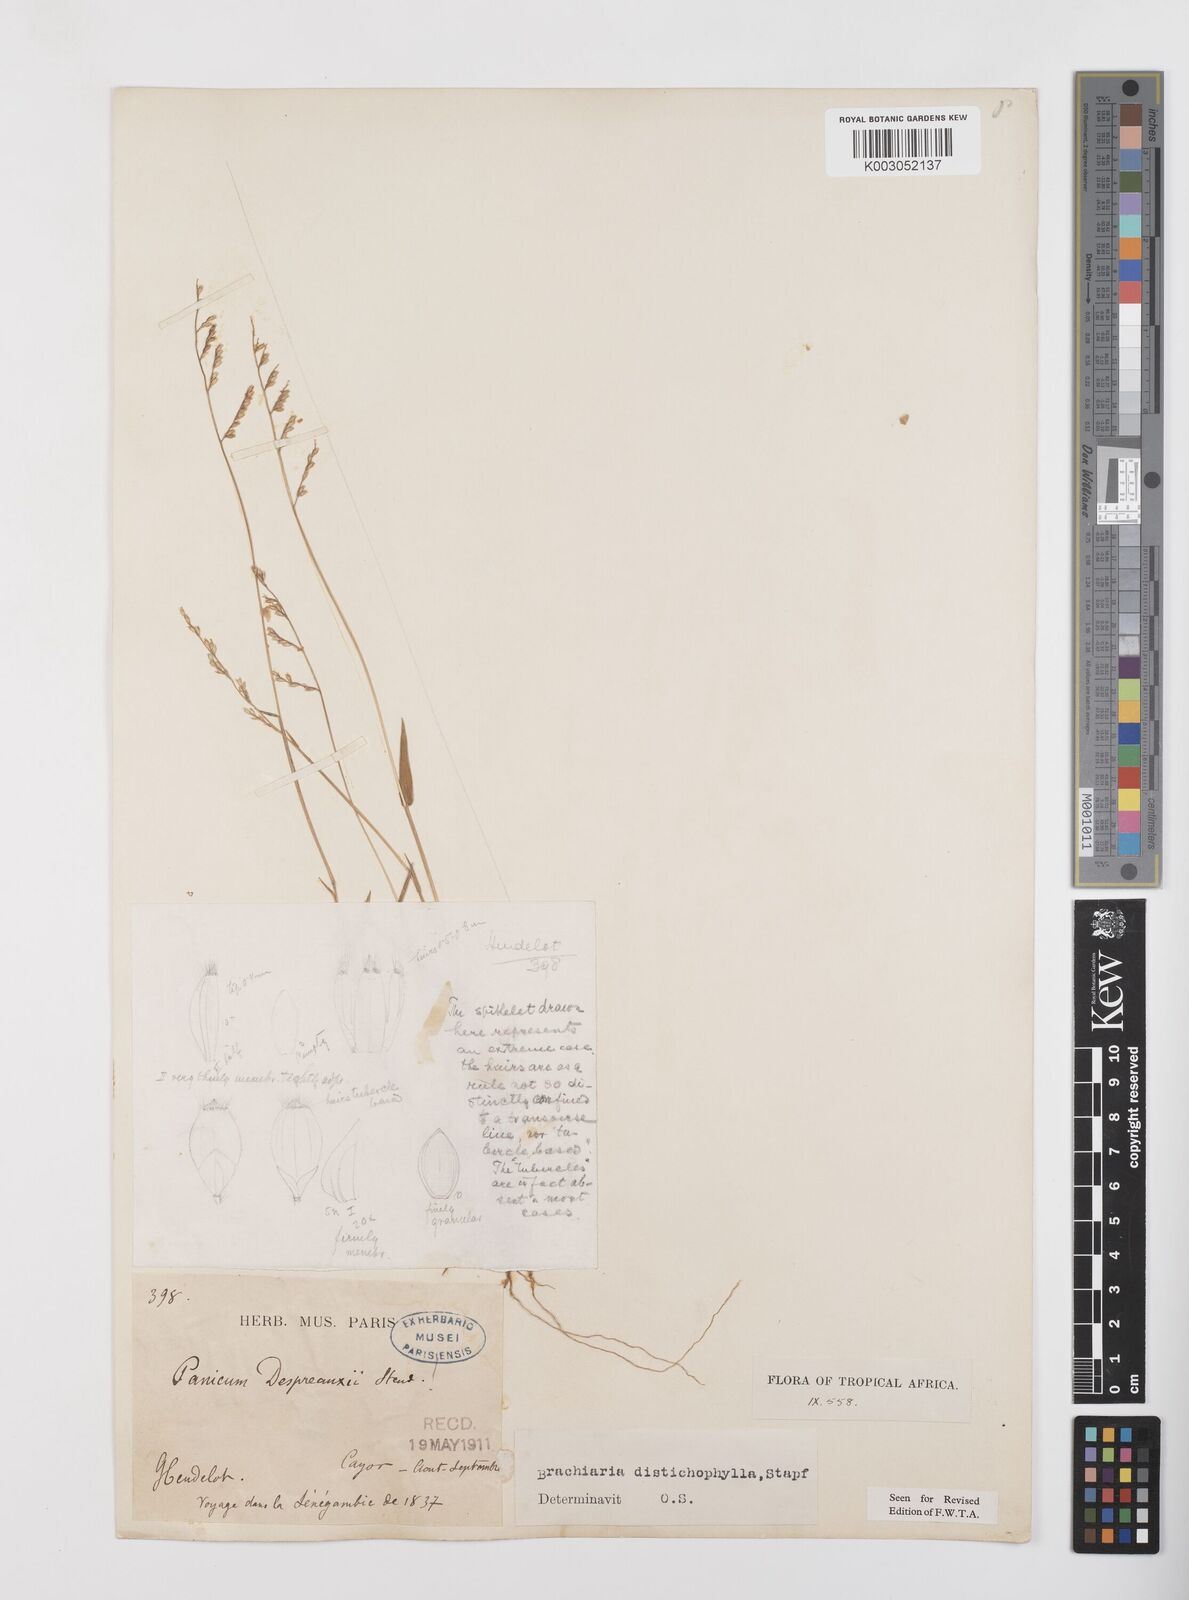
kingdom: Plantae
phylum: Tracheophyta
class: Liliopsida
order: Poales
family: Poaceae
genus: Urochloa
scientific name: Urochloa villosa
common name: Hairy signalgrass
